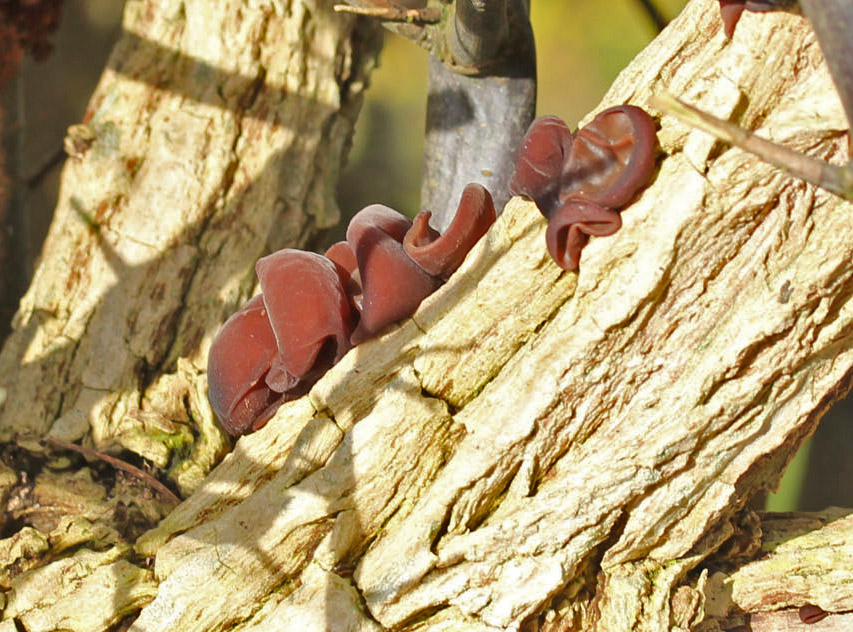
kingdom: Fungi
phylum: Basidiomycota
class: Agaricomycetes
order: Auriculariales
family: Auriculariaceae
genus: Auricularia
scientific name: Auricularia auricula-judae
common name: almindelig judasøre
